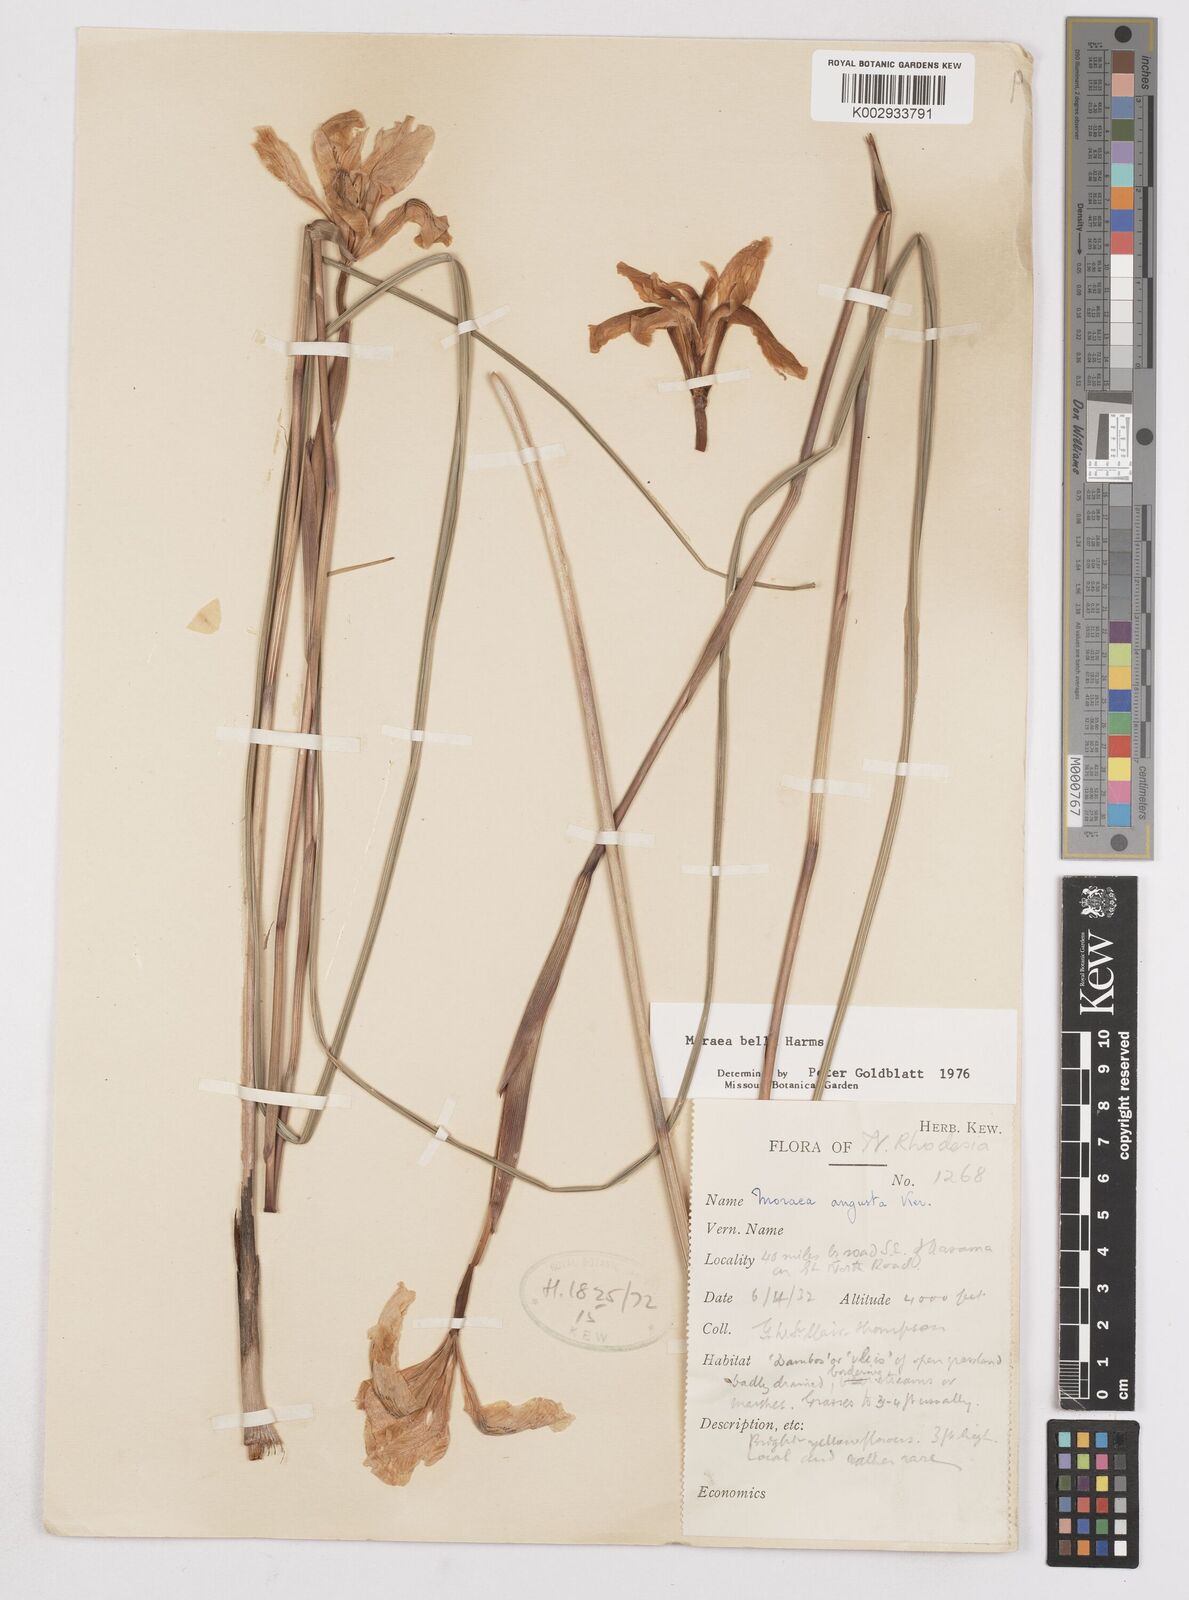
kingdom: Plantae
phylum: Tracheophyta
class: Liliopsida
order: Asparagales
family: Iridaceae
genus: Moraea
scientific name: Moraea bella
